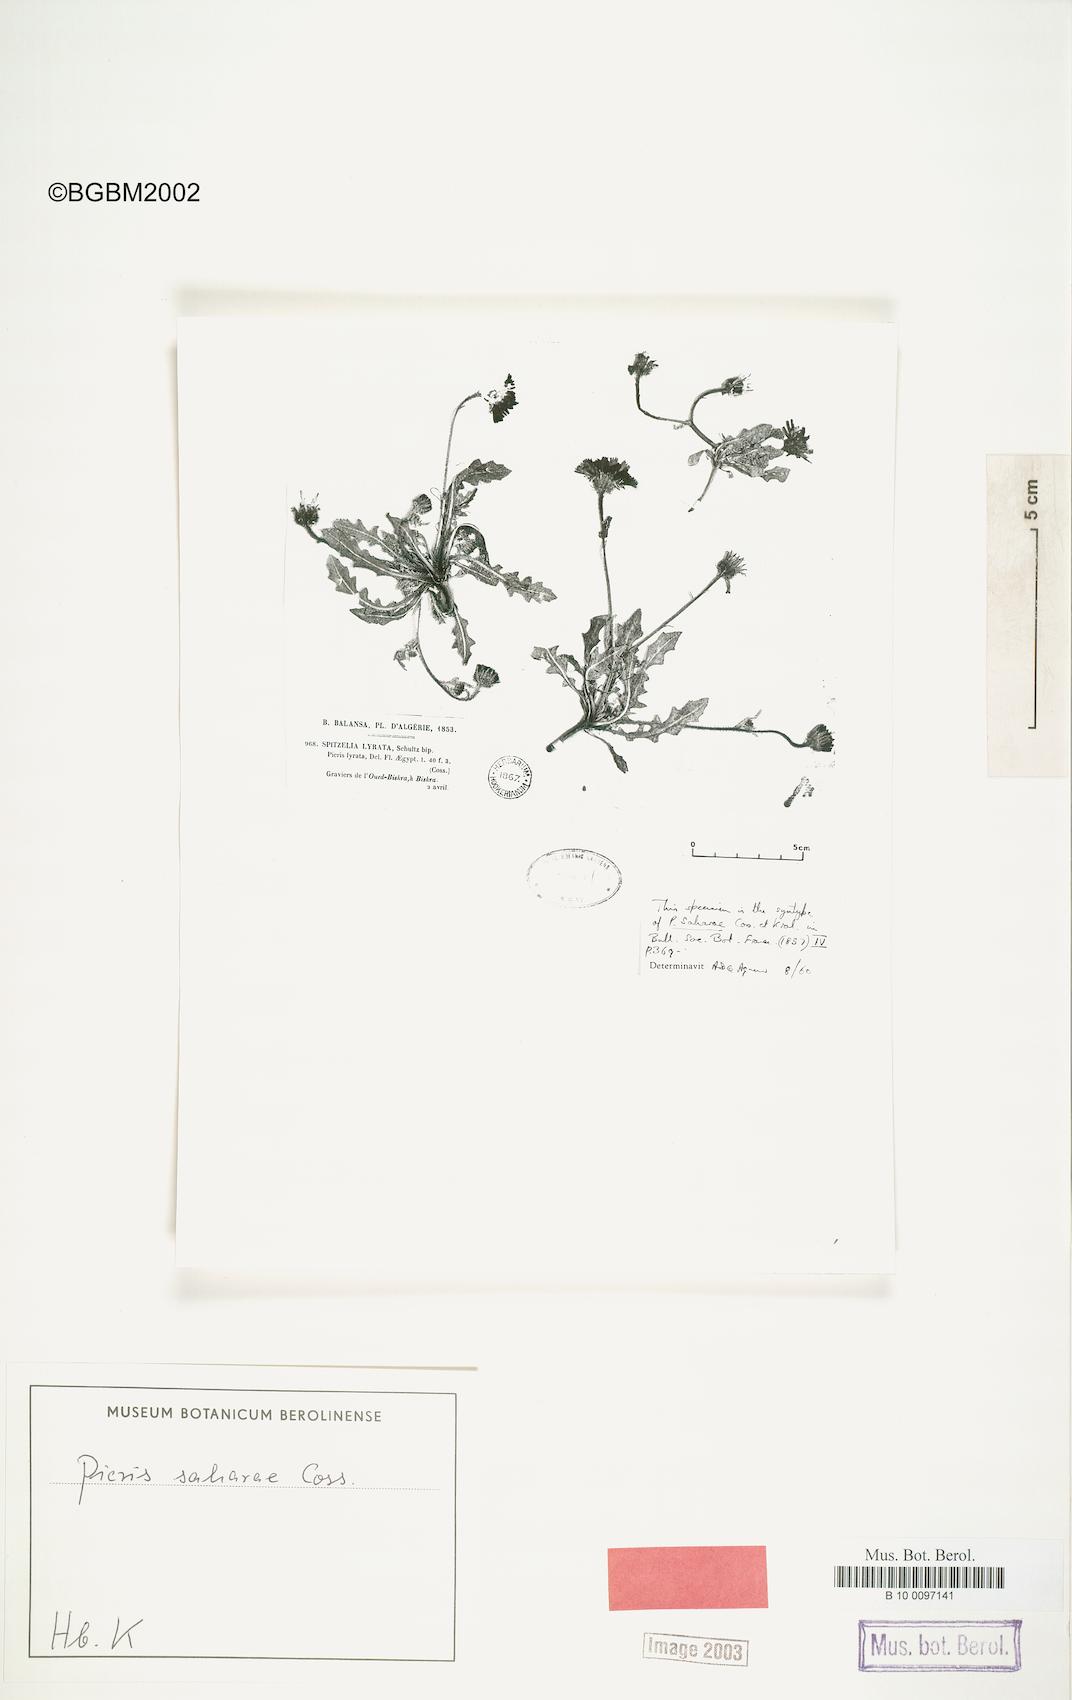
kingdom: Plantae
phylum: Tracheophyta
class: Magnoliopsida
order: Asterales
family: Asteraceae
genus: Picris
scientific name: Picris asplenioides
